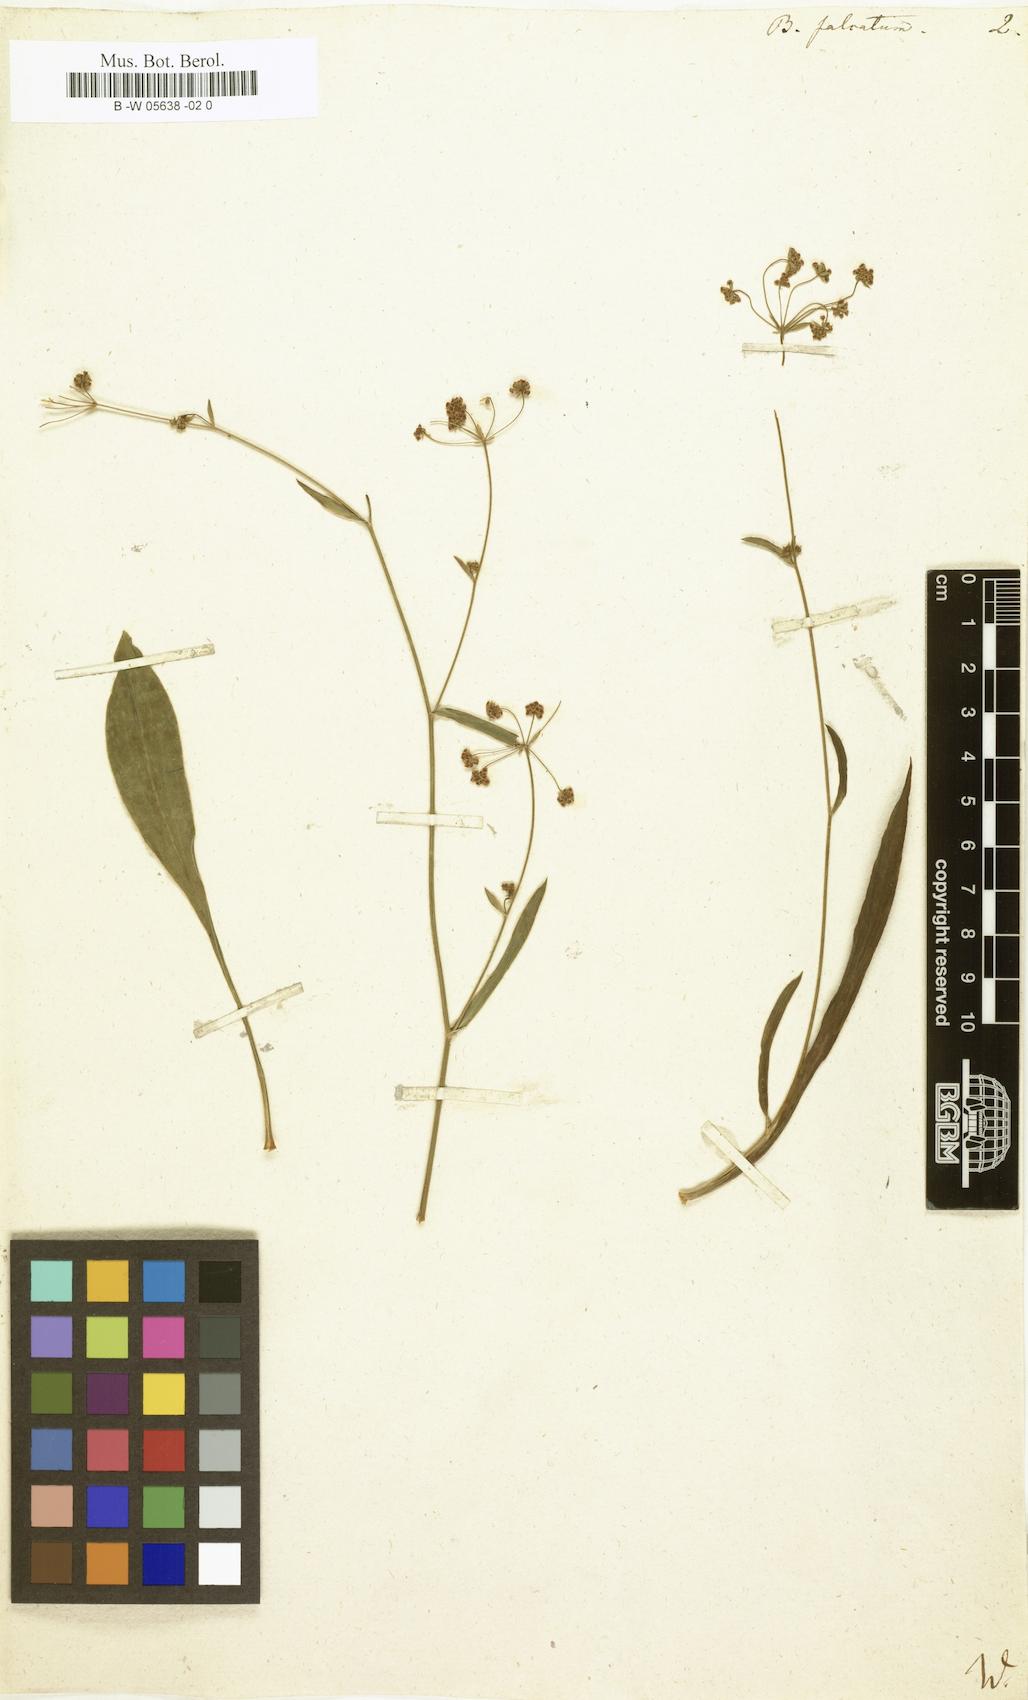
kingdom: Plantae
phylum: Tracheophyta
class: Magnoliopsida
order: Apiales
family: Apiaceae
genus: Bupleurum
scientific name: Bupleurum falcatum
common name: Sickle-leaved hare's-ear
